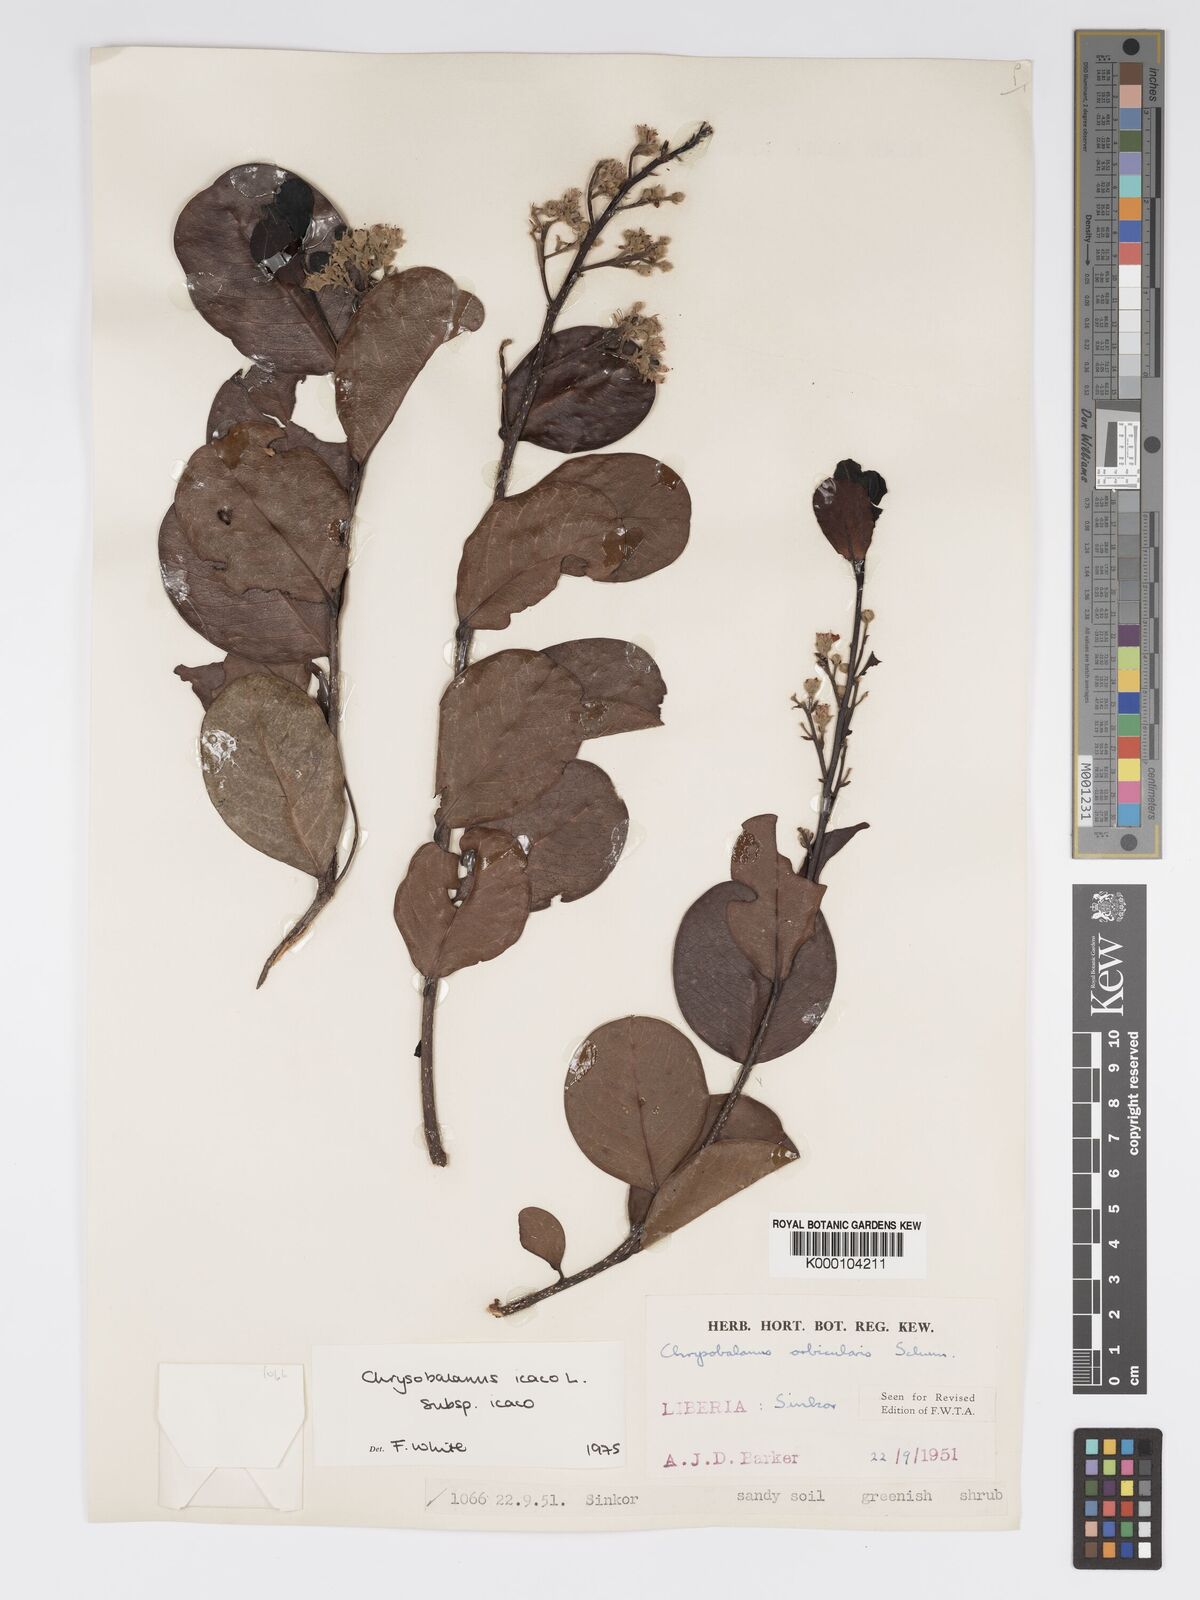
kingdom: Plantae
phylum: Tracheophyta
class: Magnoliopsida
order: Malpighiales
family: Chrysobalanaceae
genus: Chrysobalanus
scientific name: Chrysobalanus icaco
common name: Coco plum
